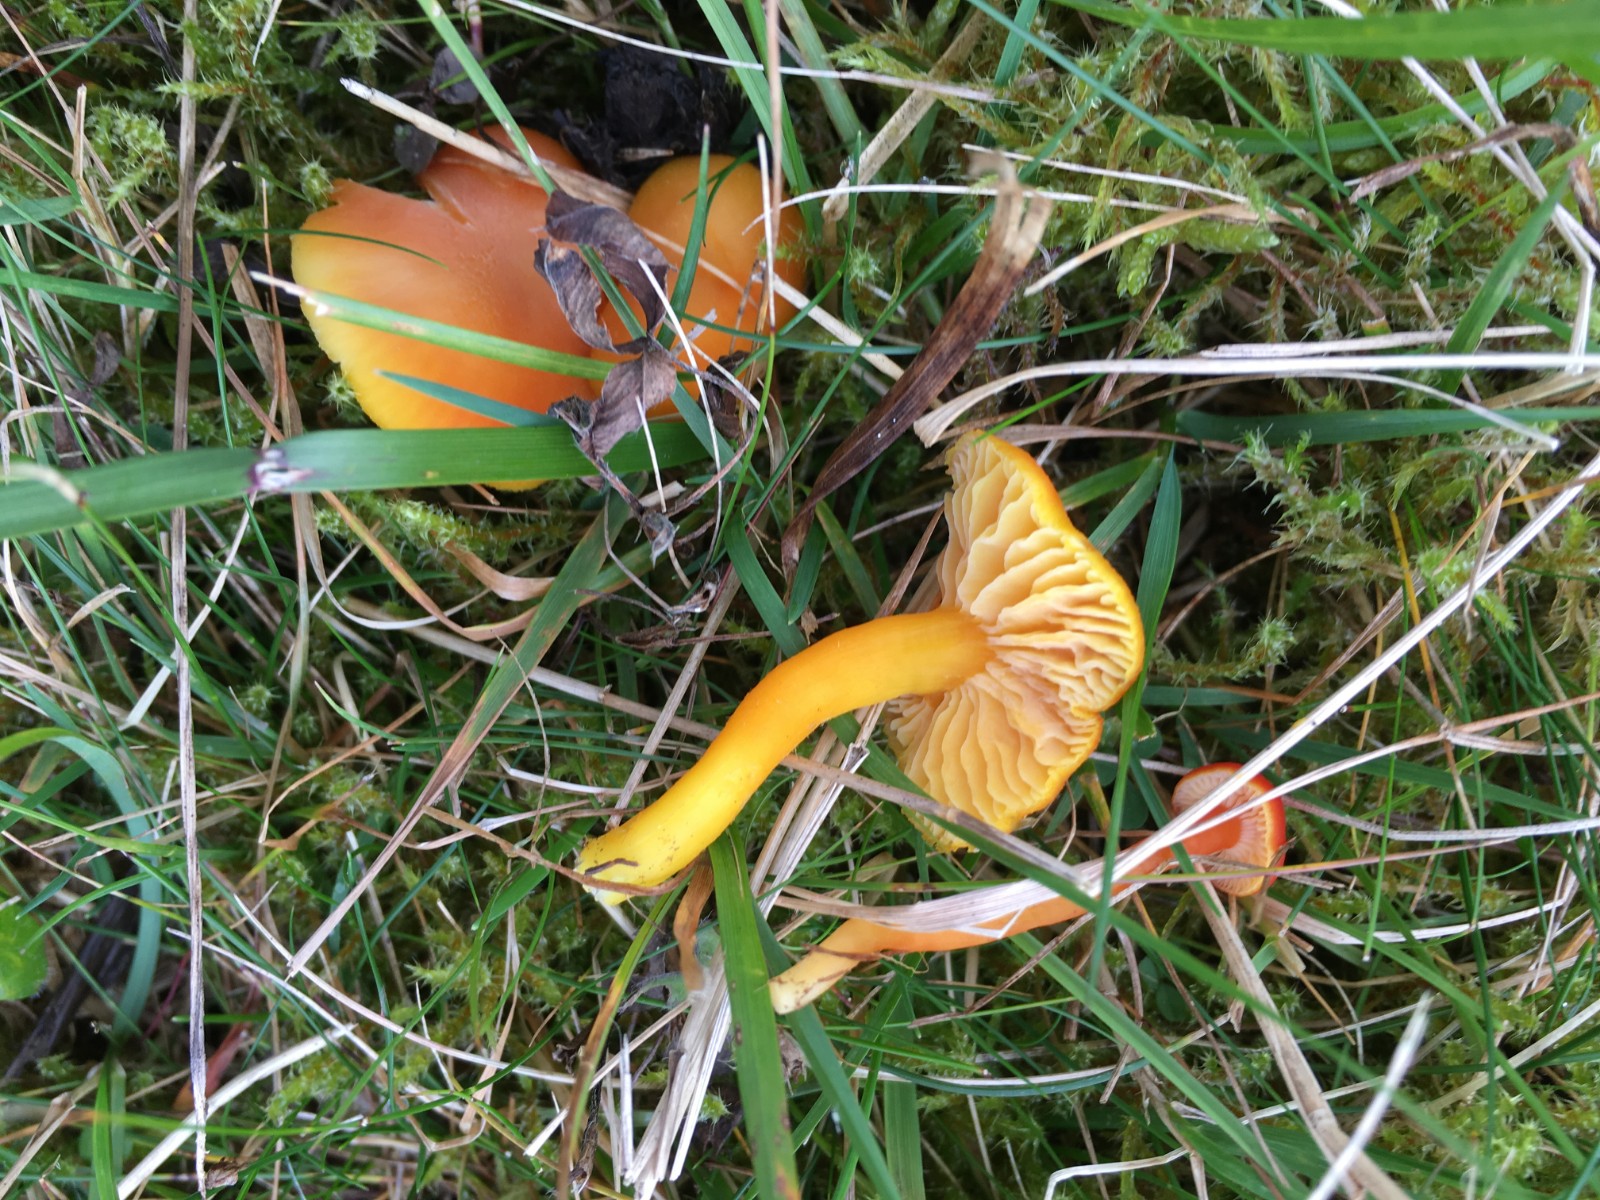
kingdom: Fungi
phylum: Basidiomycota
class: Agaricomycetes
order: Agaricales
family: Hygrophoraceae
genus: Hygrocybe
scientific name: Hygrocybe miniata
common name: mønje-vokshat
